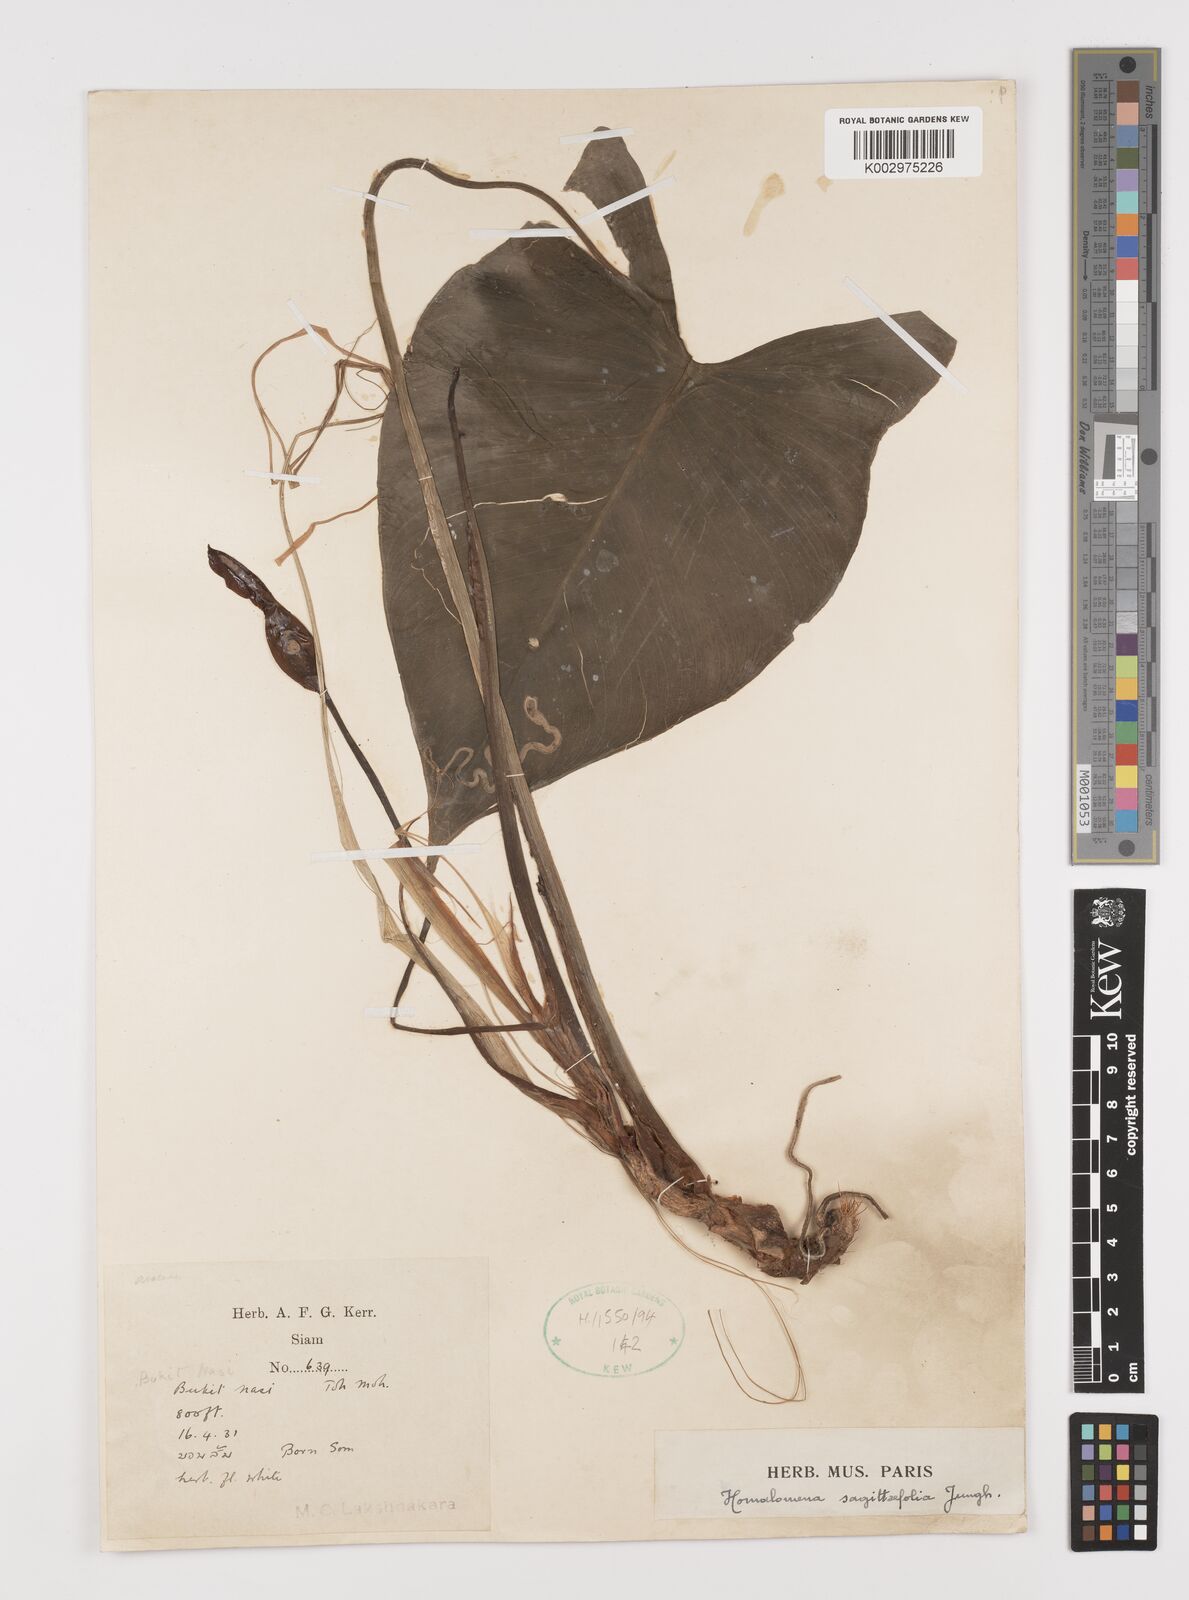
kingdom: Plantae
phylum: Tracheophyta
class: Liliopsida
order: Alismatales
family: Araceae
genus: Homalomena
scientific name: Homalomena rostrata
